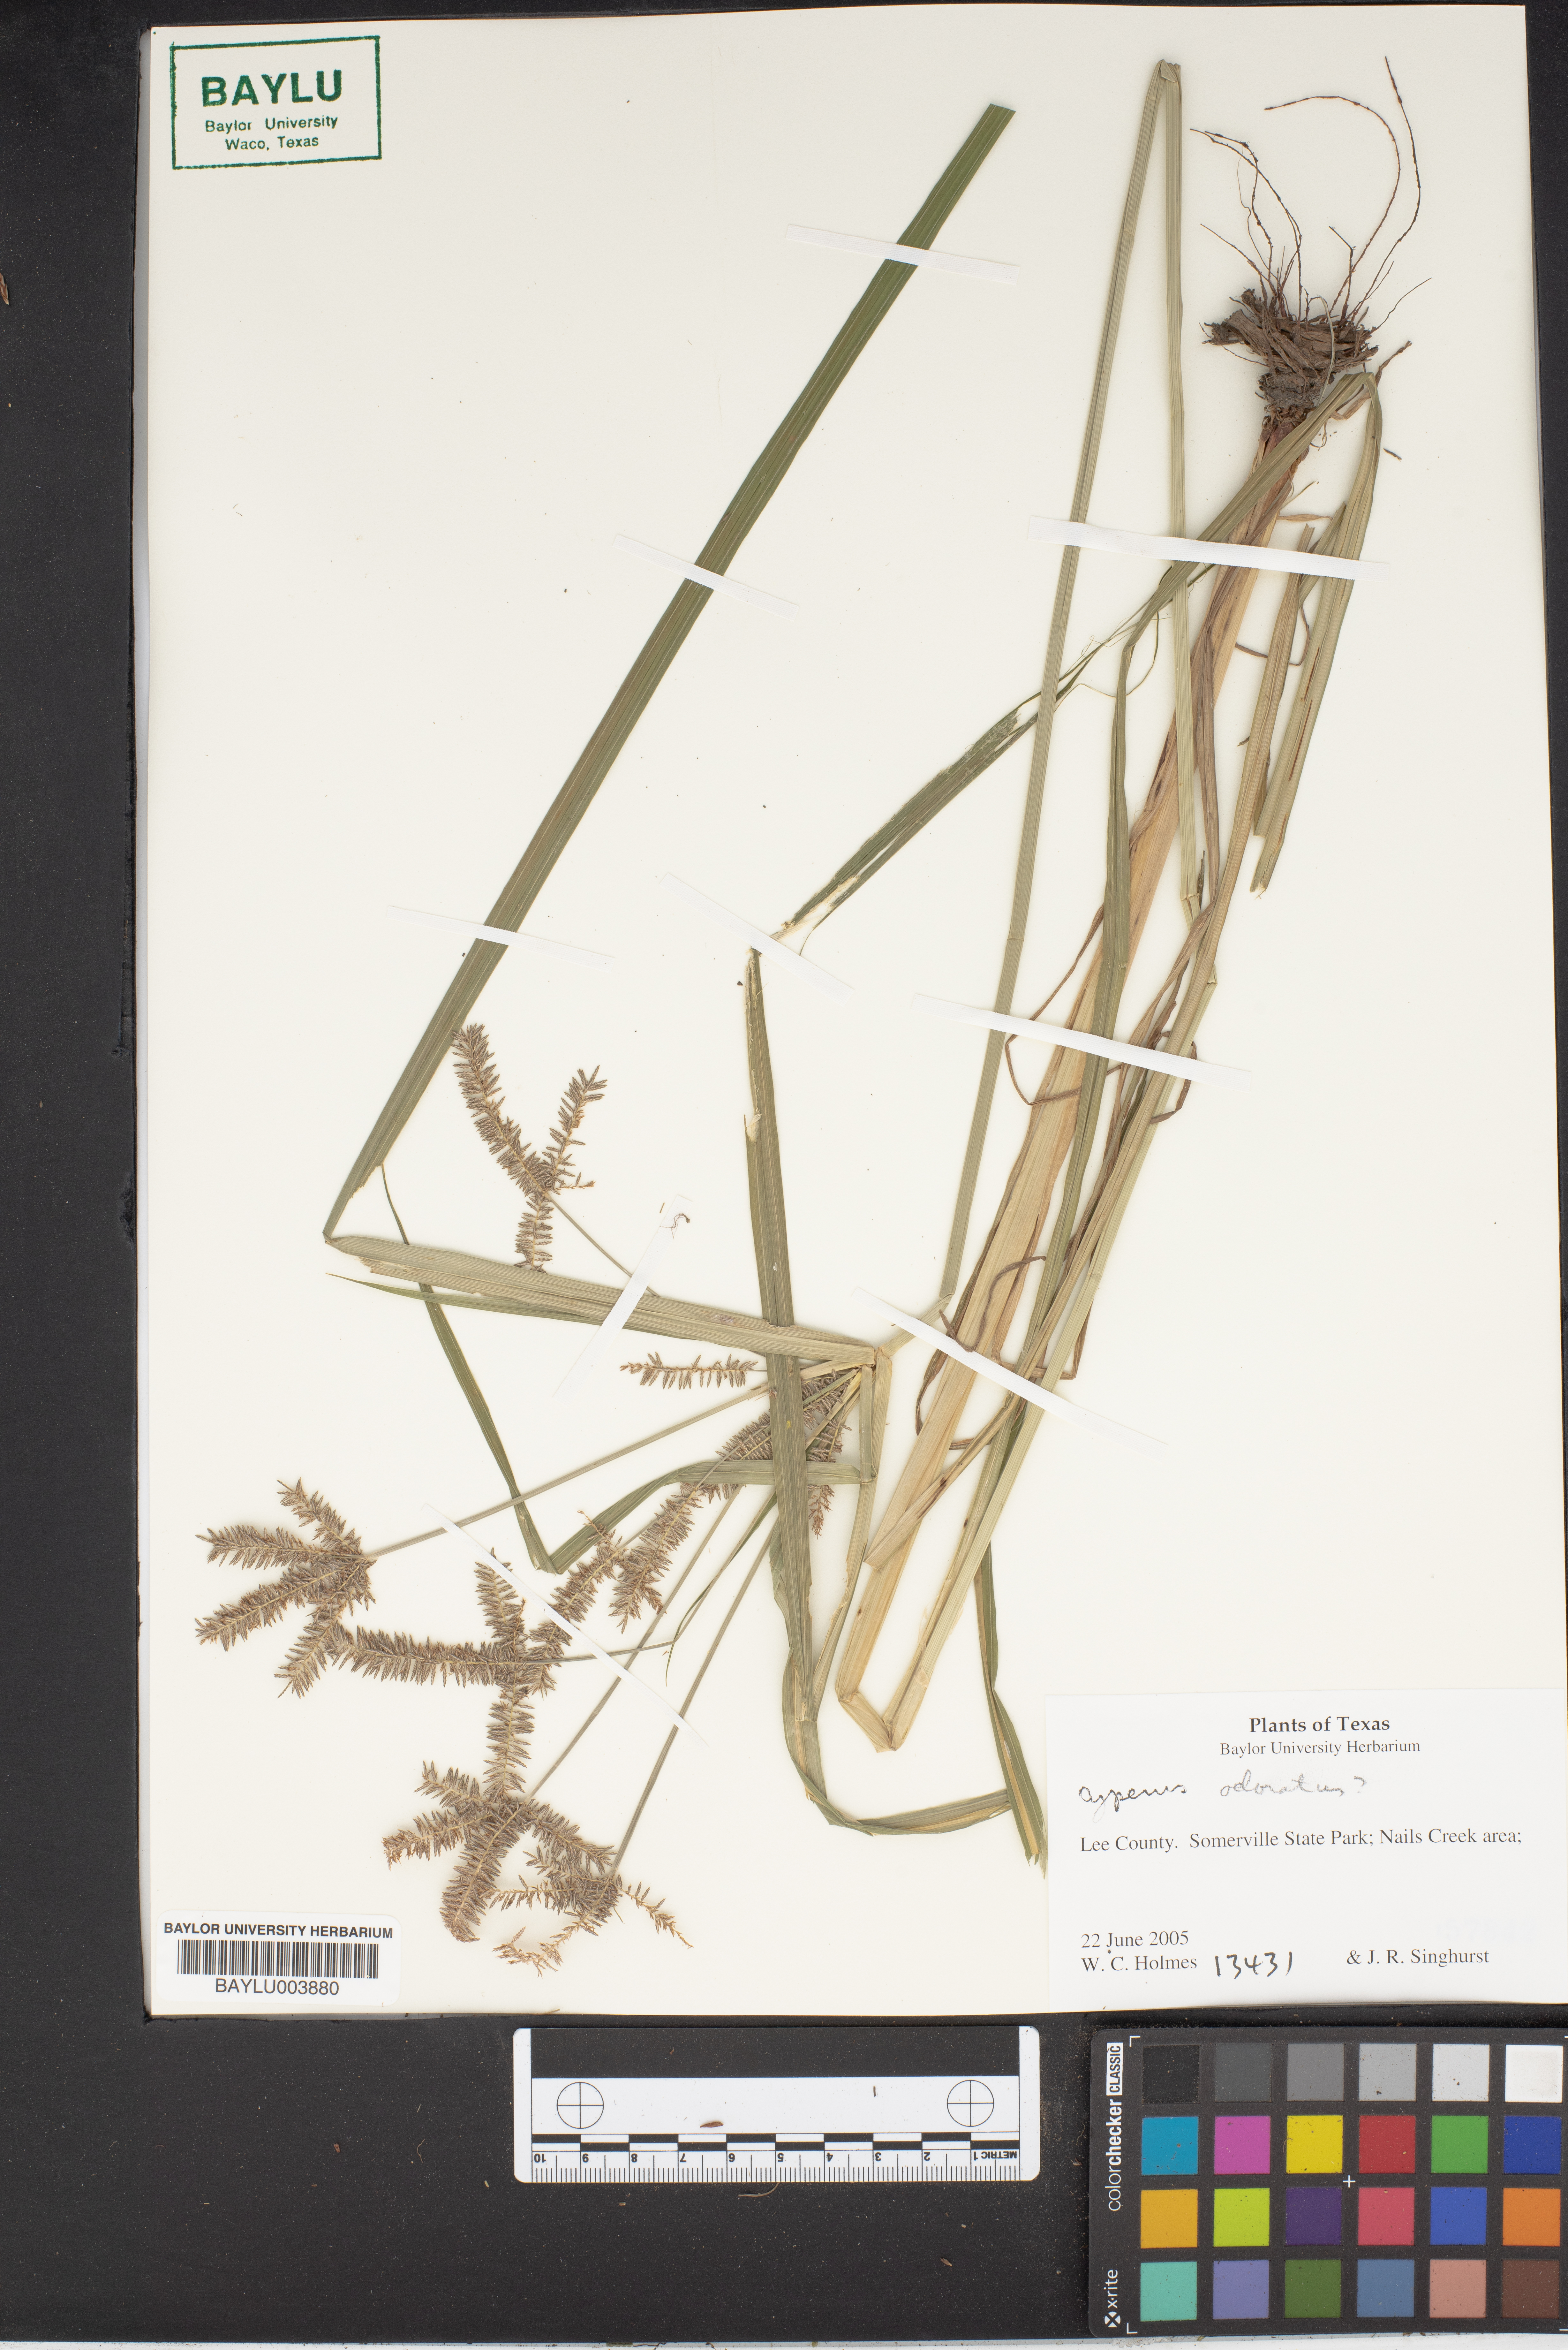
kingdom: Plantae
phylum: Tracheophyta
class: Liliopsida
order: Poales
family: Cyperaceae
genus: Cyperus
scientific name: Cyperus odoratus
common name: Fragrant flatsedge
